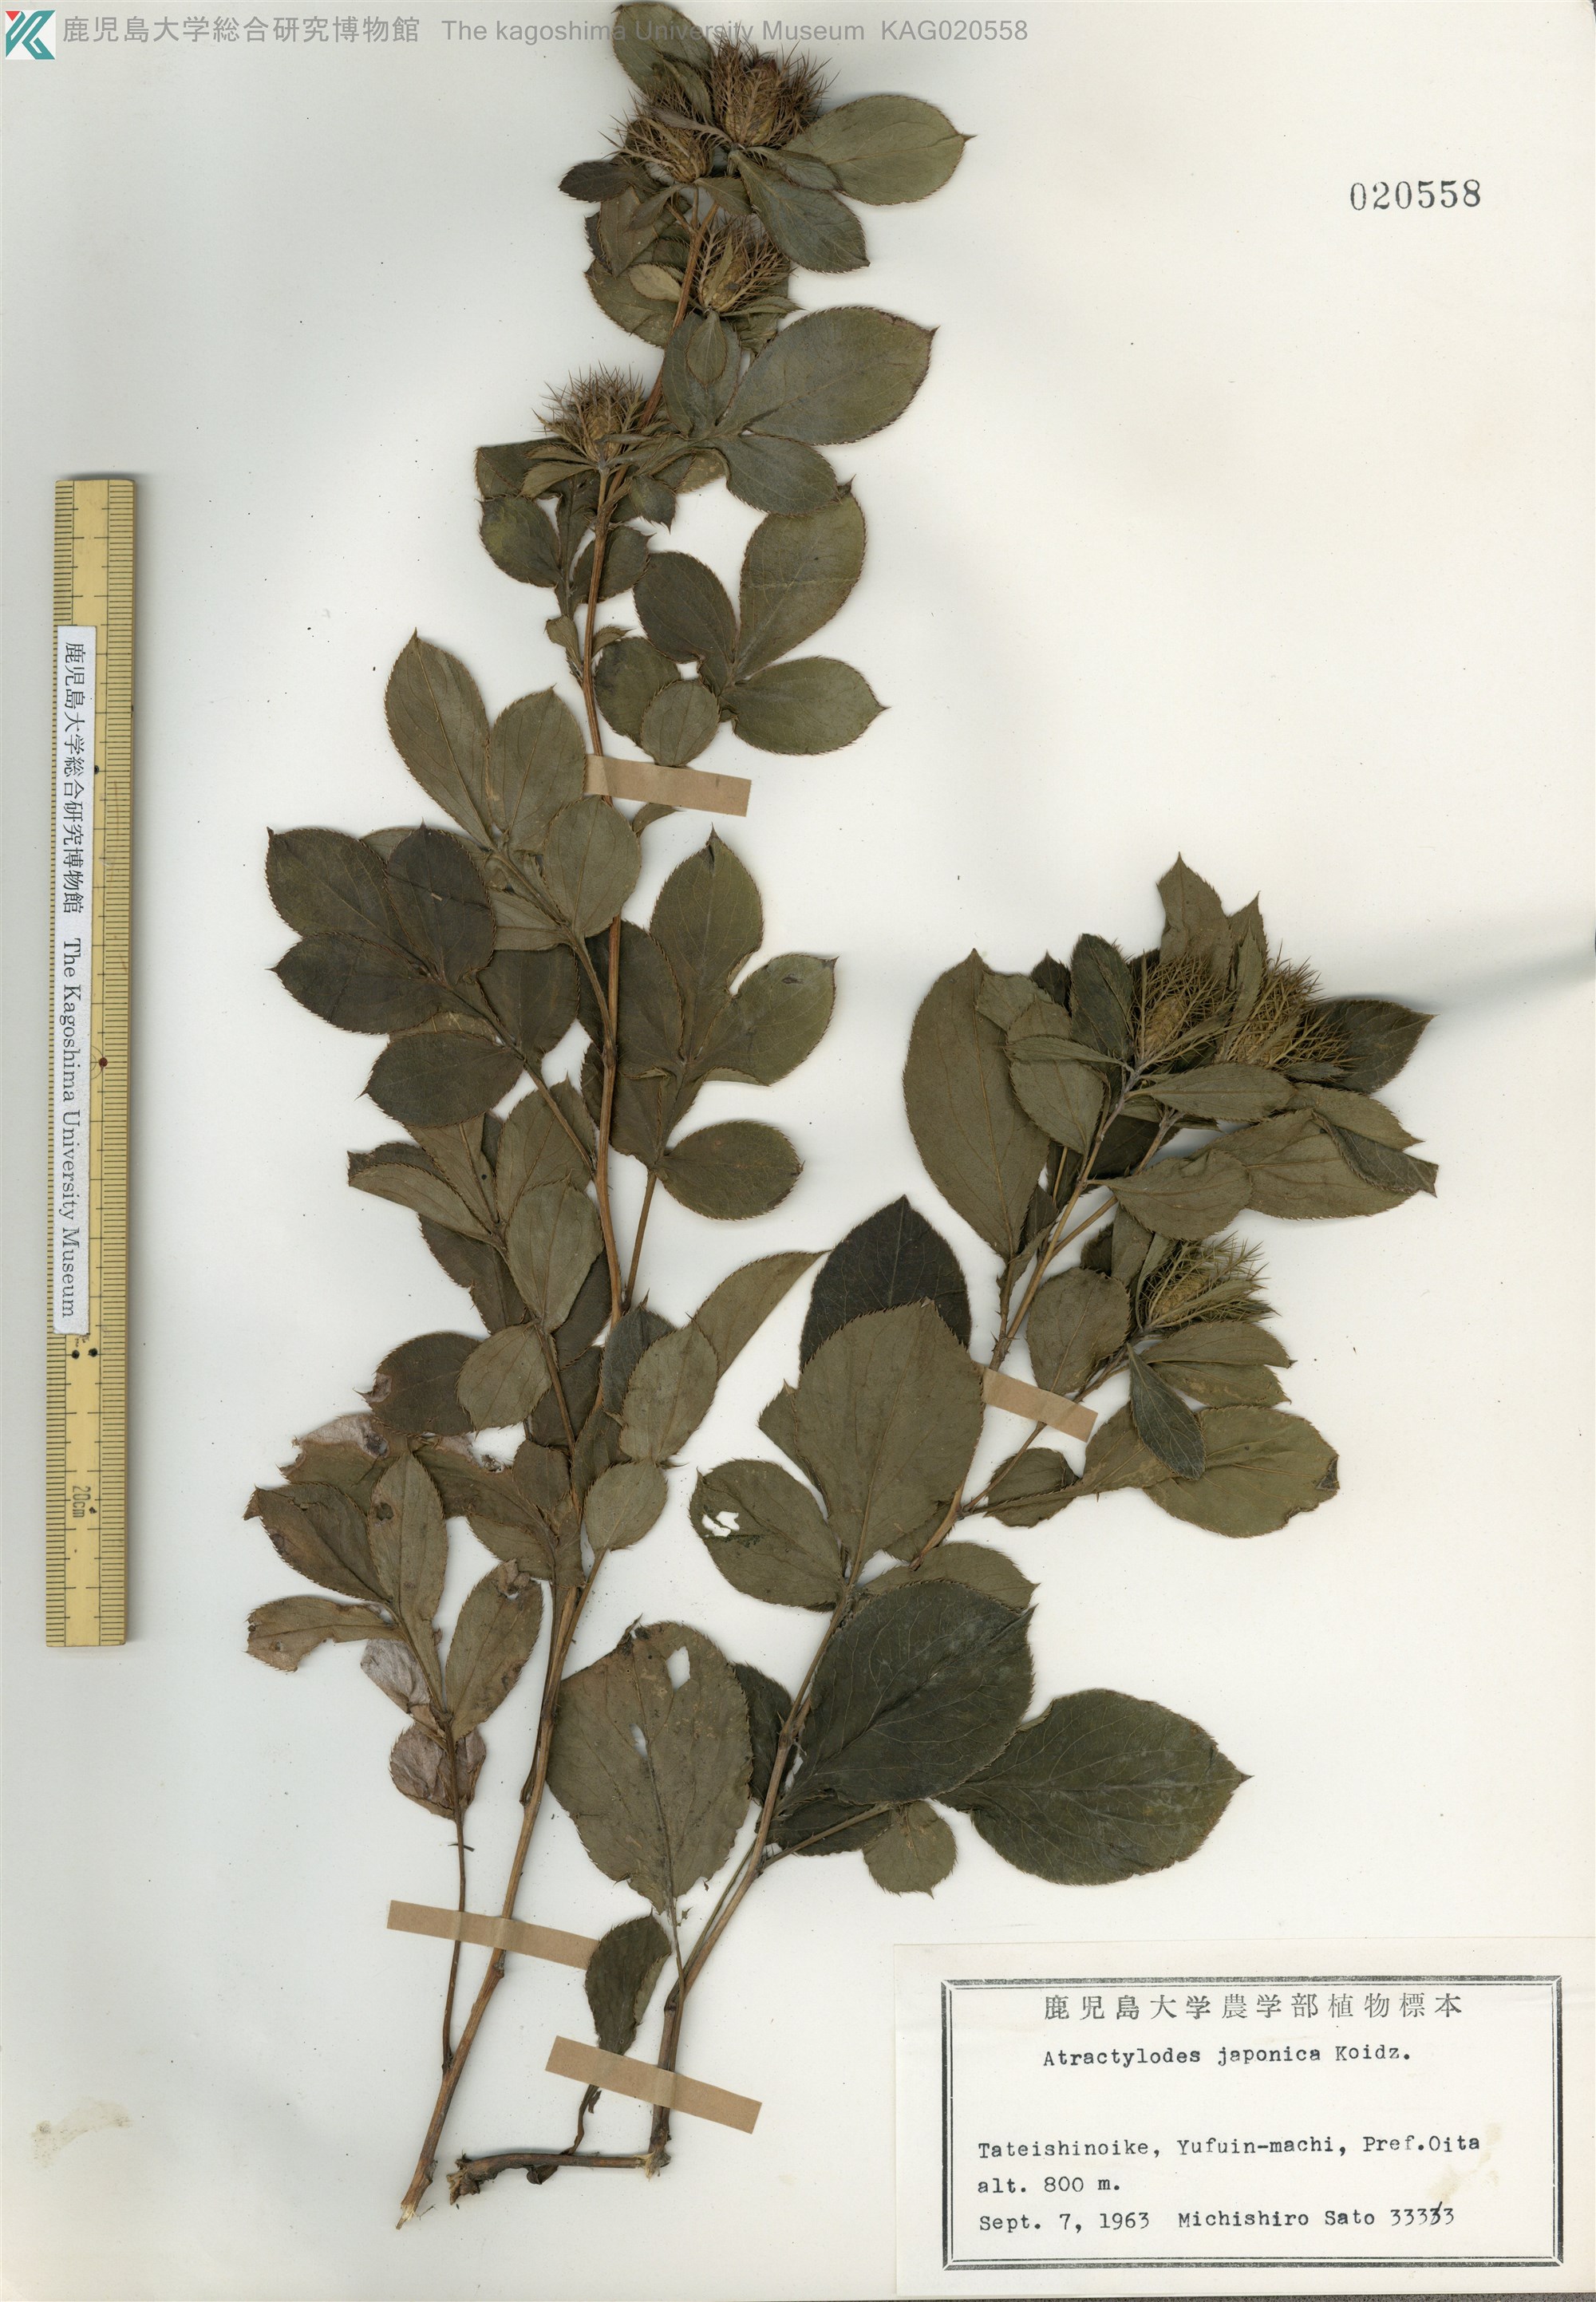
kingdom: Plantae
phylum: Tracheophyta
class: Magnoliopsida
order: Asterales
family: Asteraceae
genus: Atractylodes
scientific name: Atractylodes lancea
